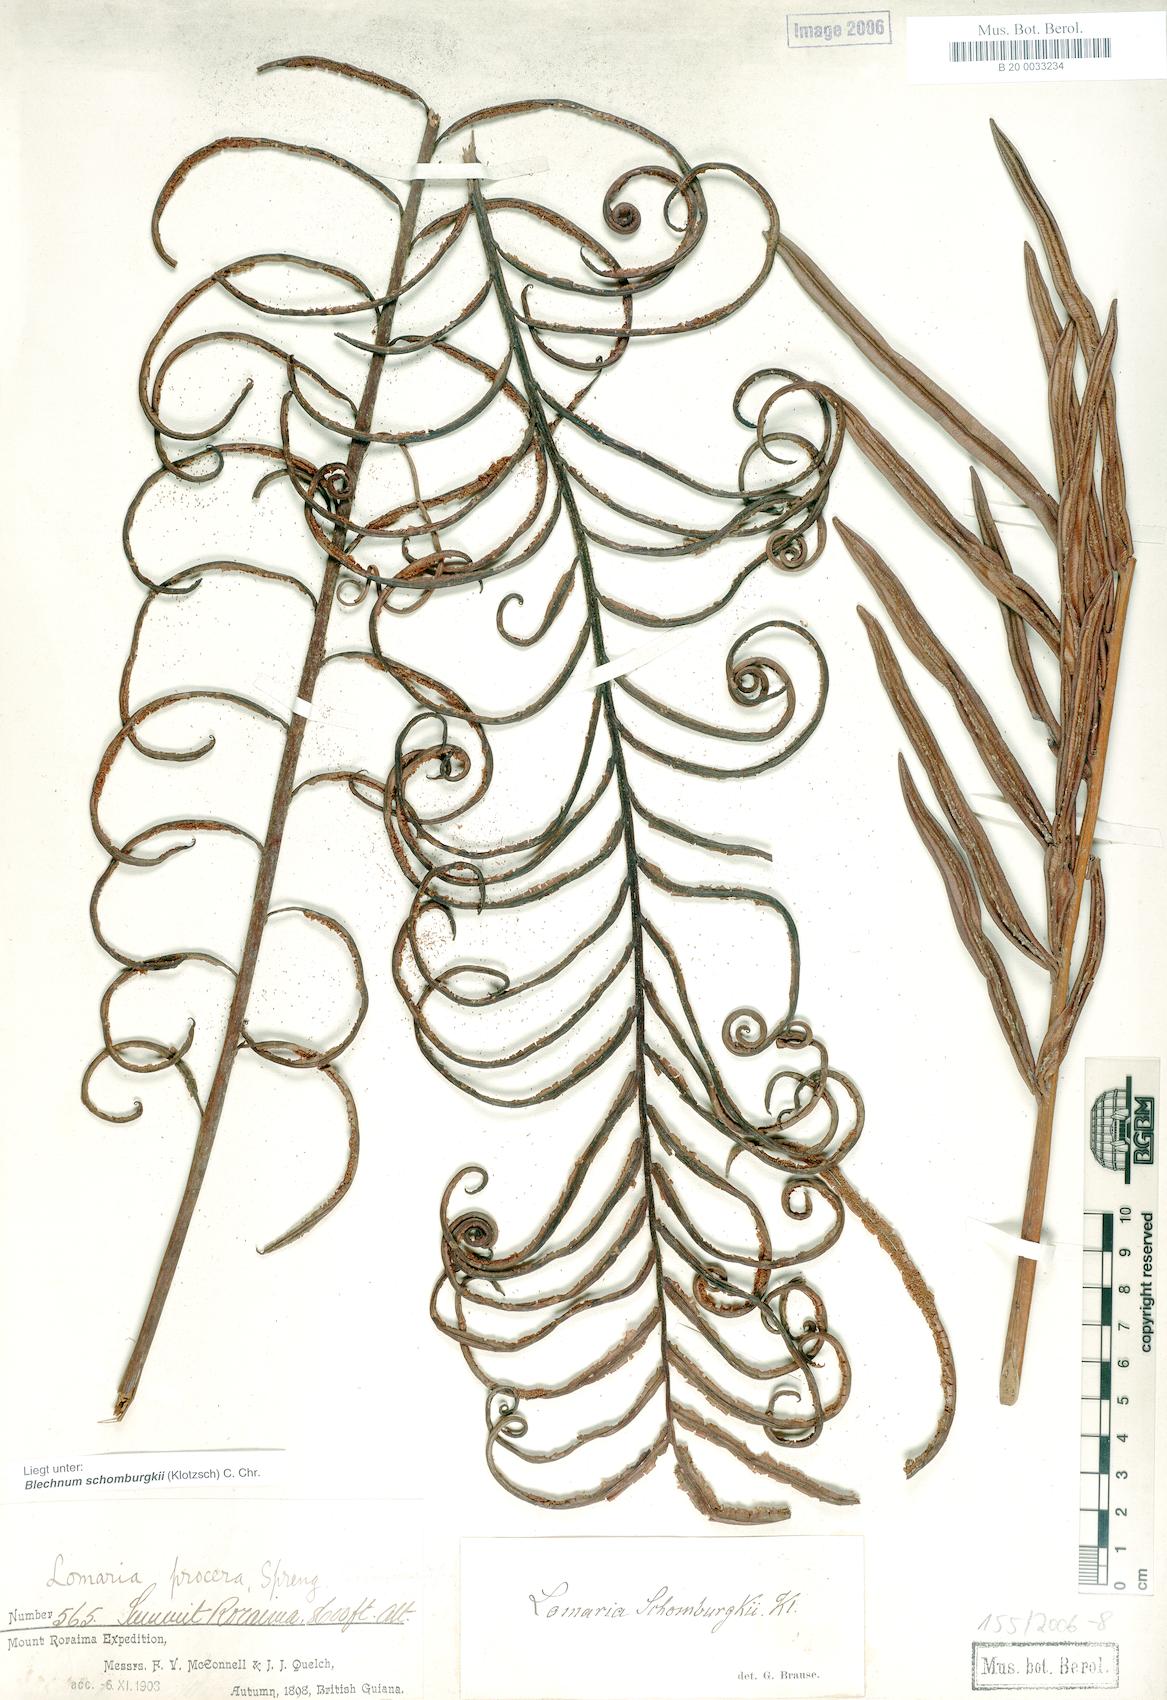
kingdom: Plantae
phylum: Tracheophyta
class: Polypodiopsida
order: Polypodiales
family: Blechnaceae
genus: Lomariocycas
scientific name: Lomariocycas schomburgkii
